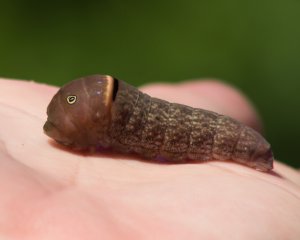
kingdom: Animalia
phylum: Arthropoda
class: Insecta
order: Lepidoptera
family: Papilionidae
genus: Pterourus
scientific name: Pterourus glaucus
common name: Eastern Tiger Swallowtail
